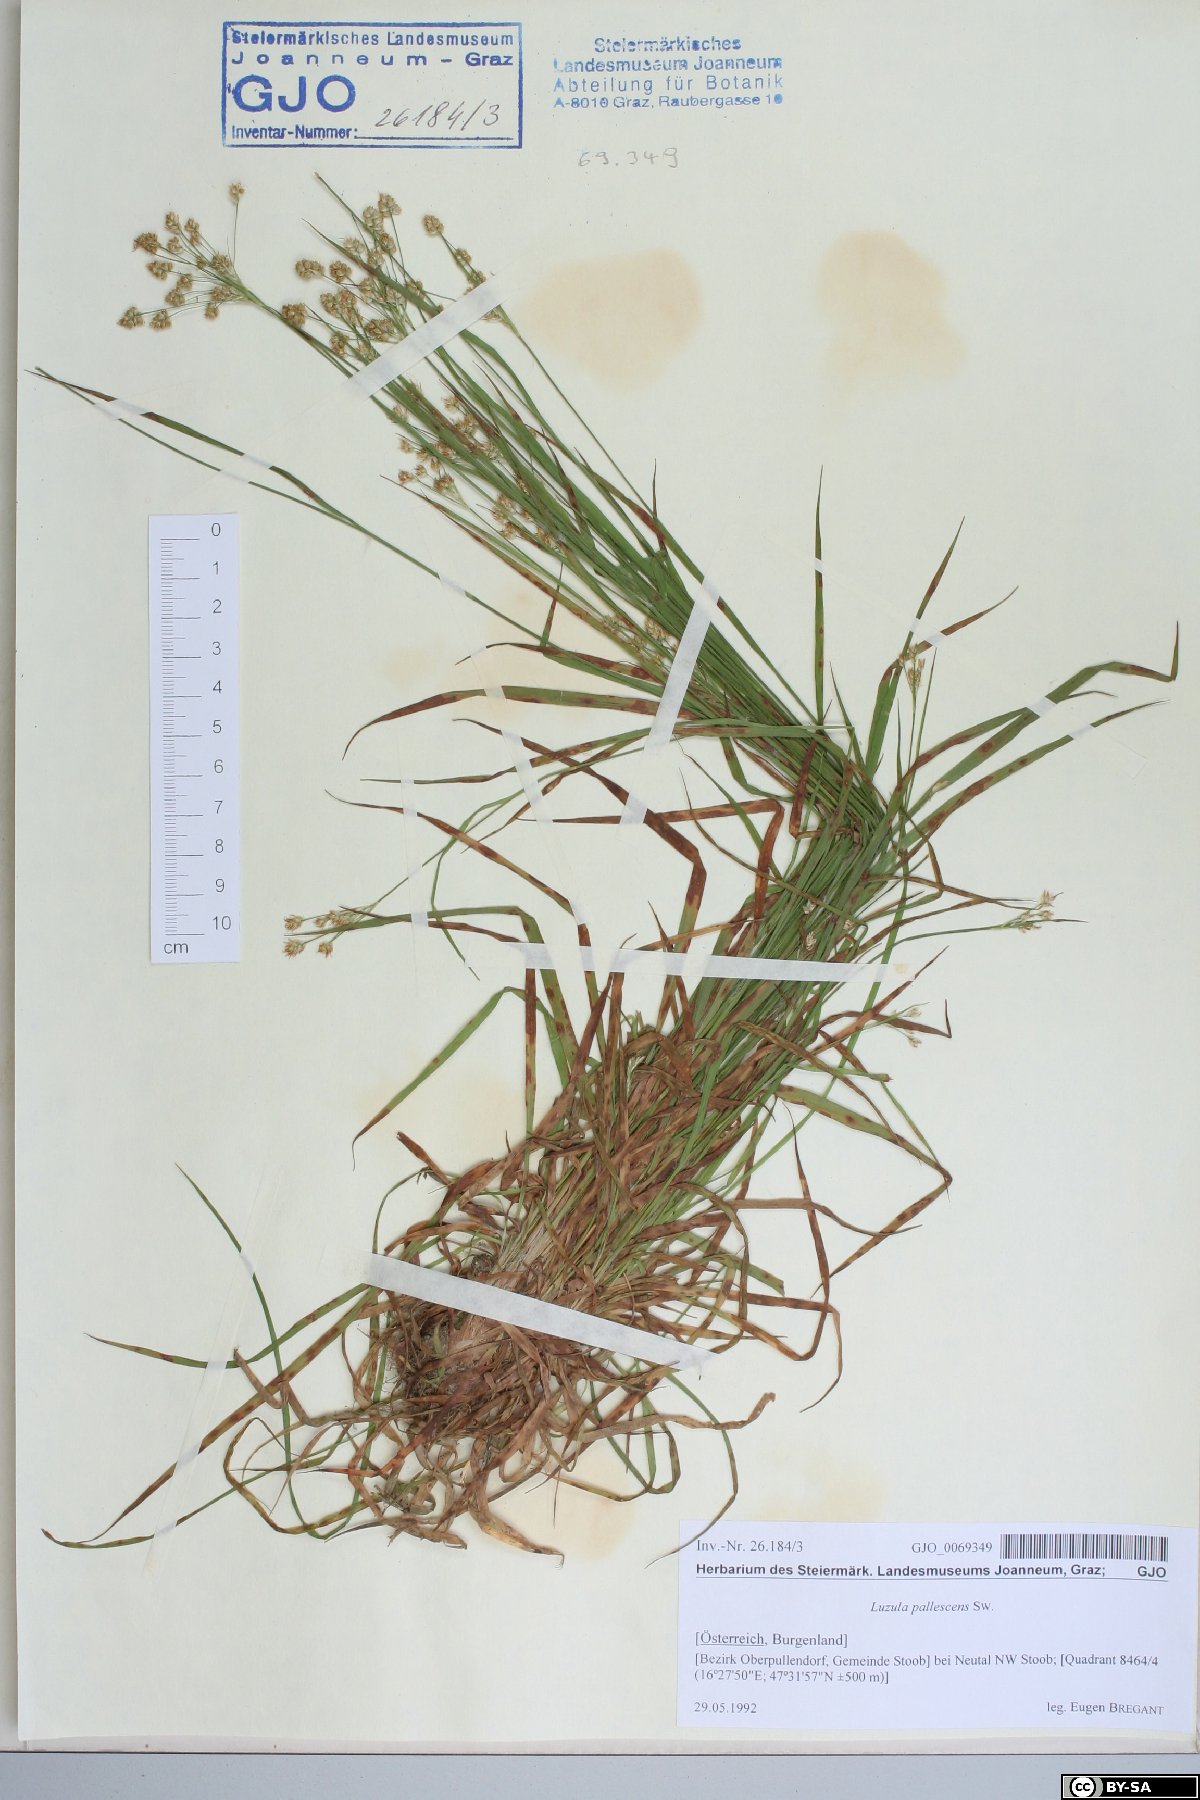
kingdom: Plantae
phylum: Tracheophyta
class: Liliopsida
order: Poales
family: Juncaceae
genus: Luzula
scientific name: Luzula pallescens
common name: Fen wood-rush
